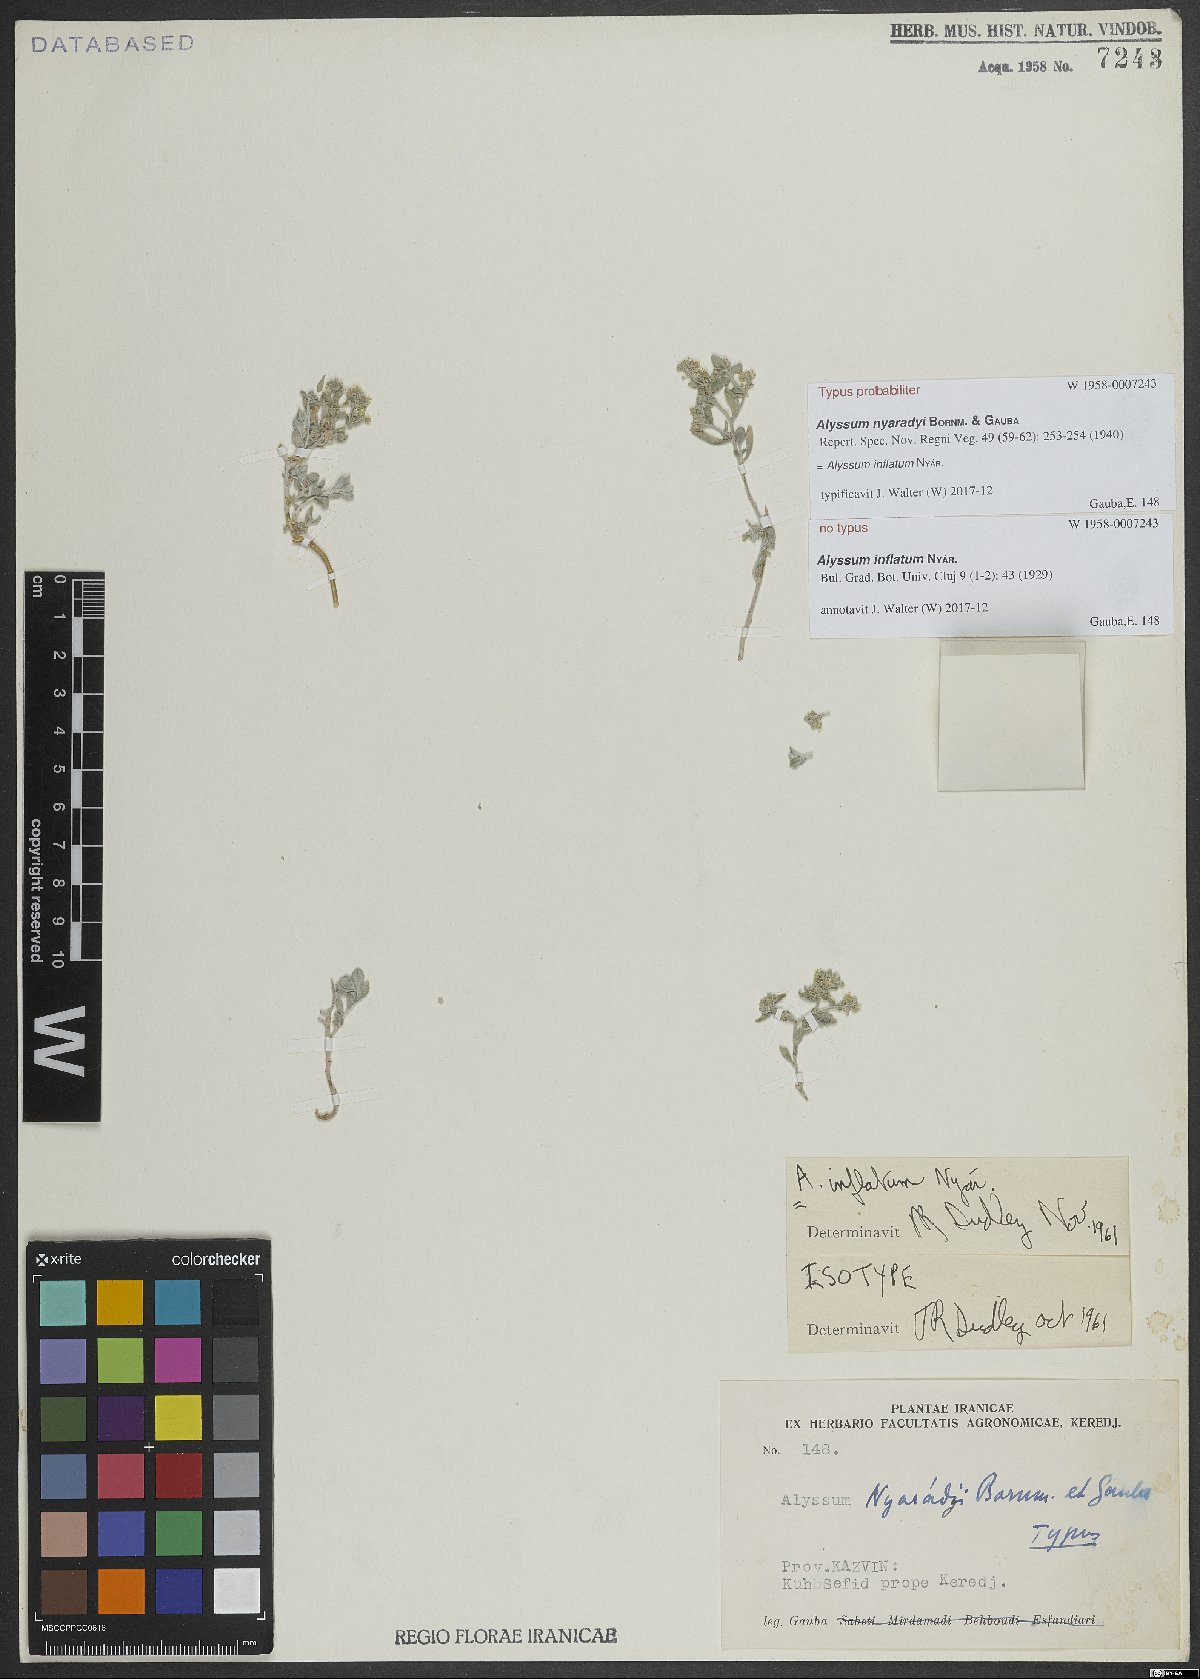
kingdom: Plantae
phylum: Tracheophyta
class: Magnoliopsida
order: Brassicales
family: Brassicaceae
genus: Odontarrhena
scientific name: Odontarrhena inflata
